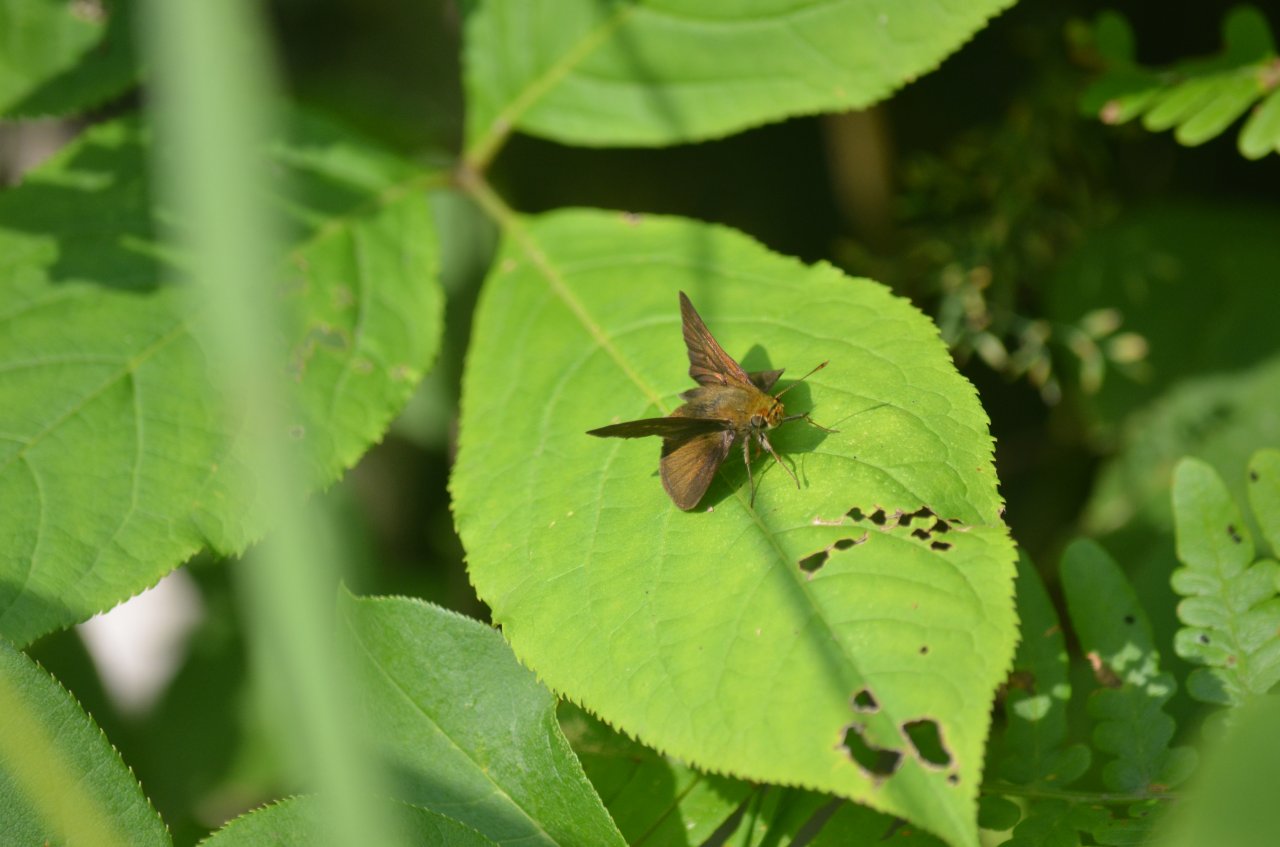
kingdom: Animalia
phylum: Arthropoda
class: Insecta
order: Lepidoptera
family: Hesperiidae
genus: Euphyes
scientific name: Euphyes vestris
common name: Dun Skipper
